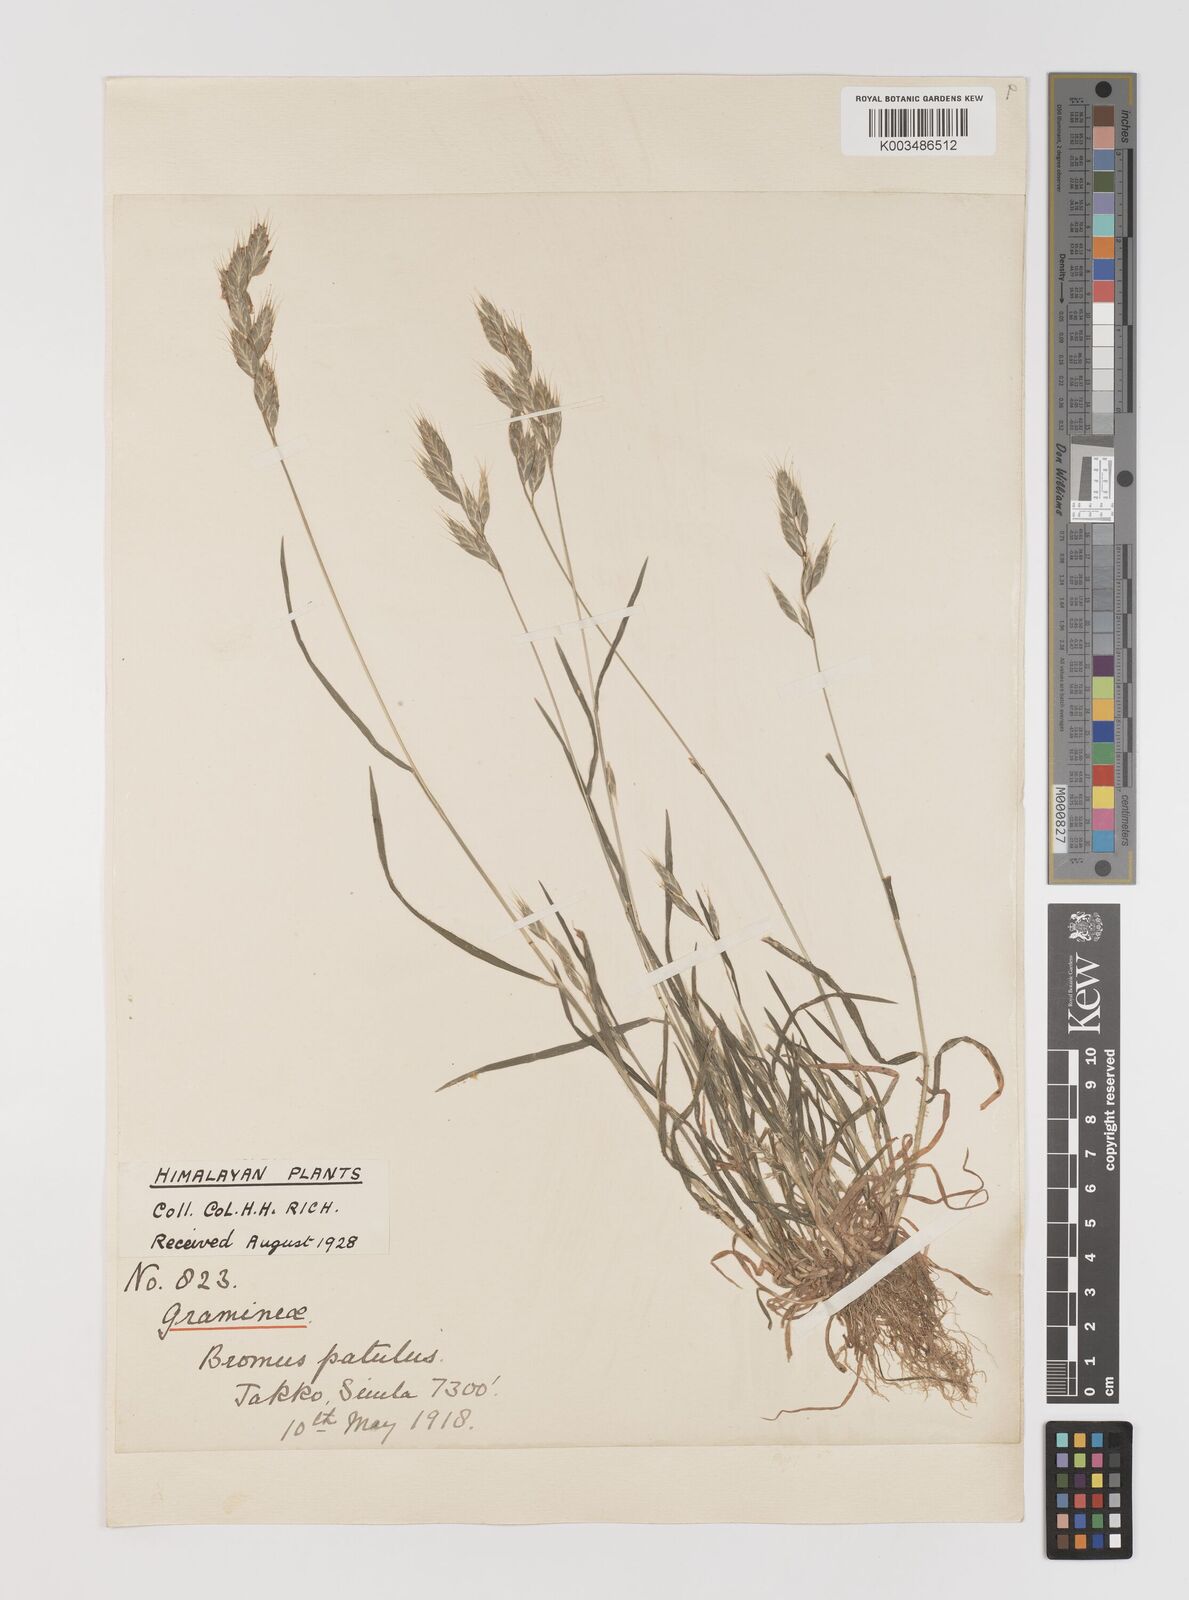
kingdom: Plantae
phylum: Tracheophyta
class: Liliopsida
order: Poales
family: Poaceae
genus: Bromus
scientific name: Bromus hordeaceus
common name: Soft brome
